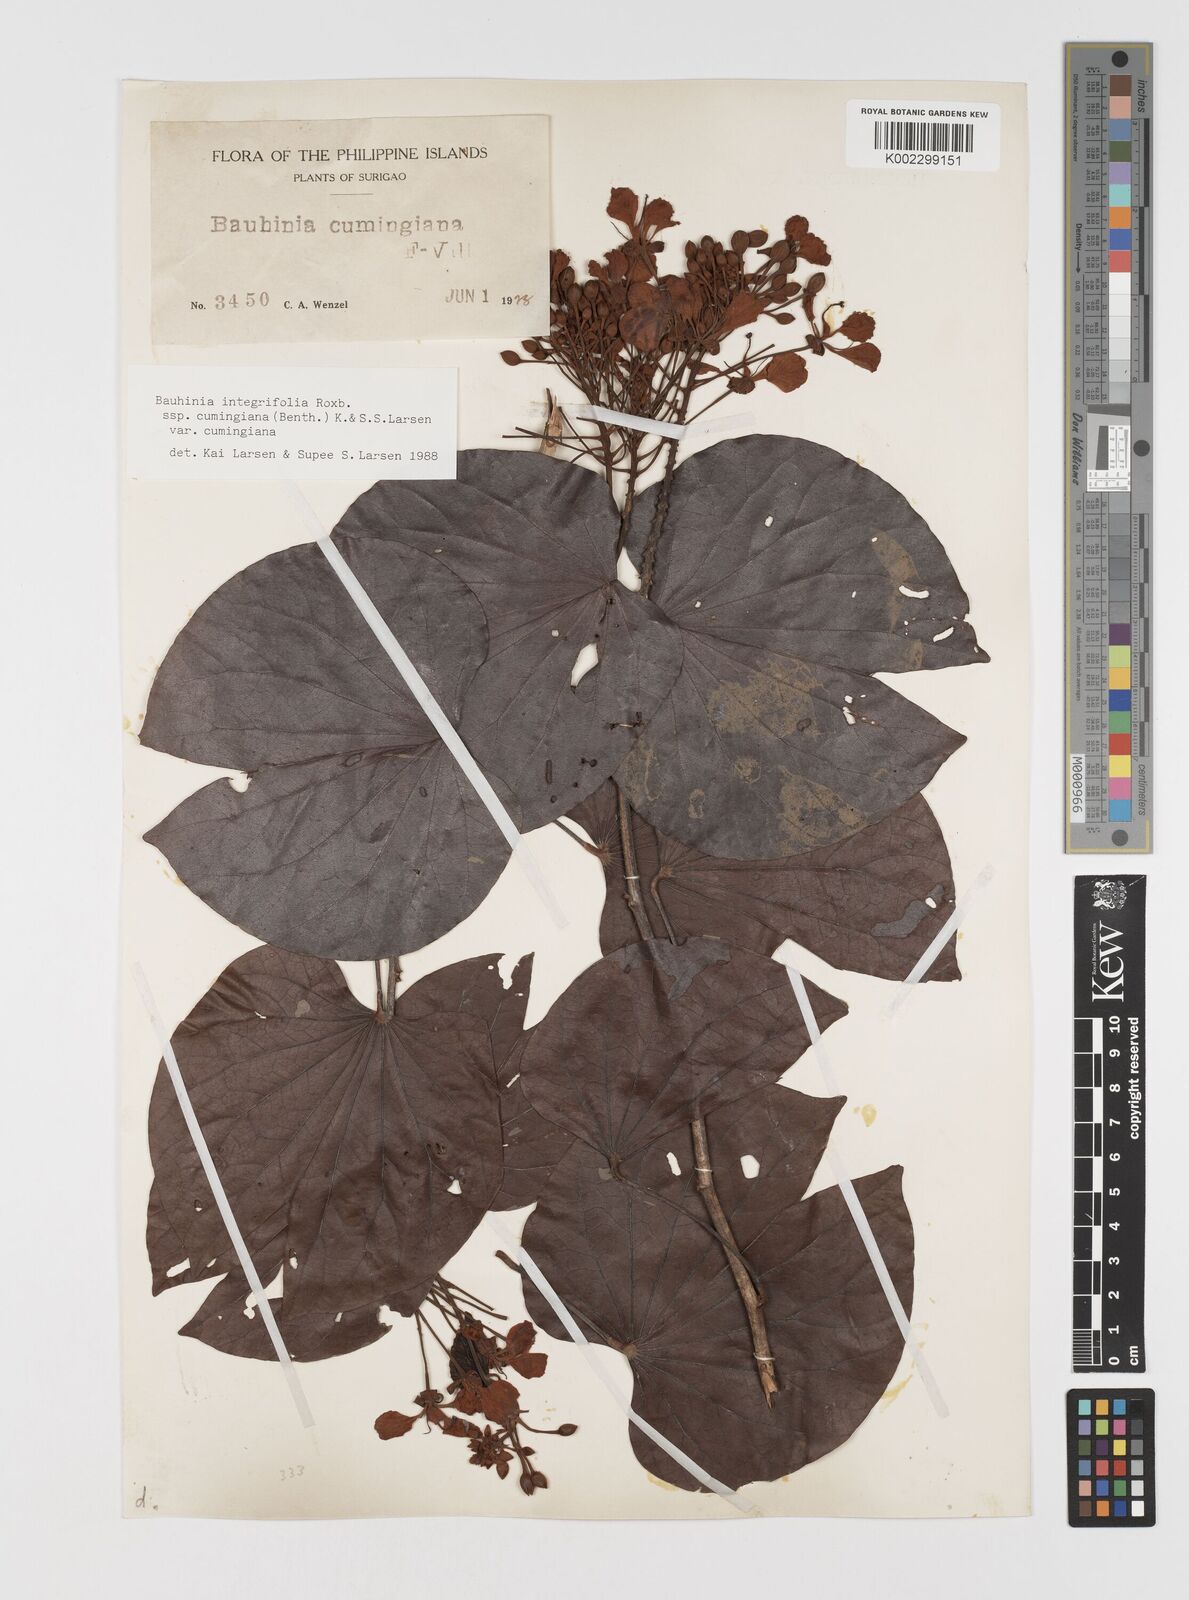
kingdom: Plantae
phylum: Tracheophyta
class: Magnoliopsida
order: Fabales
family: Fabaceae
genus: Phanera
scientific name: Phanera integrifolia
